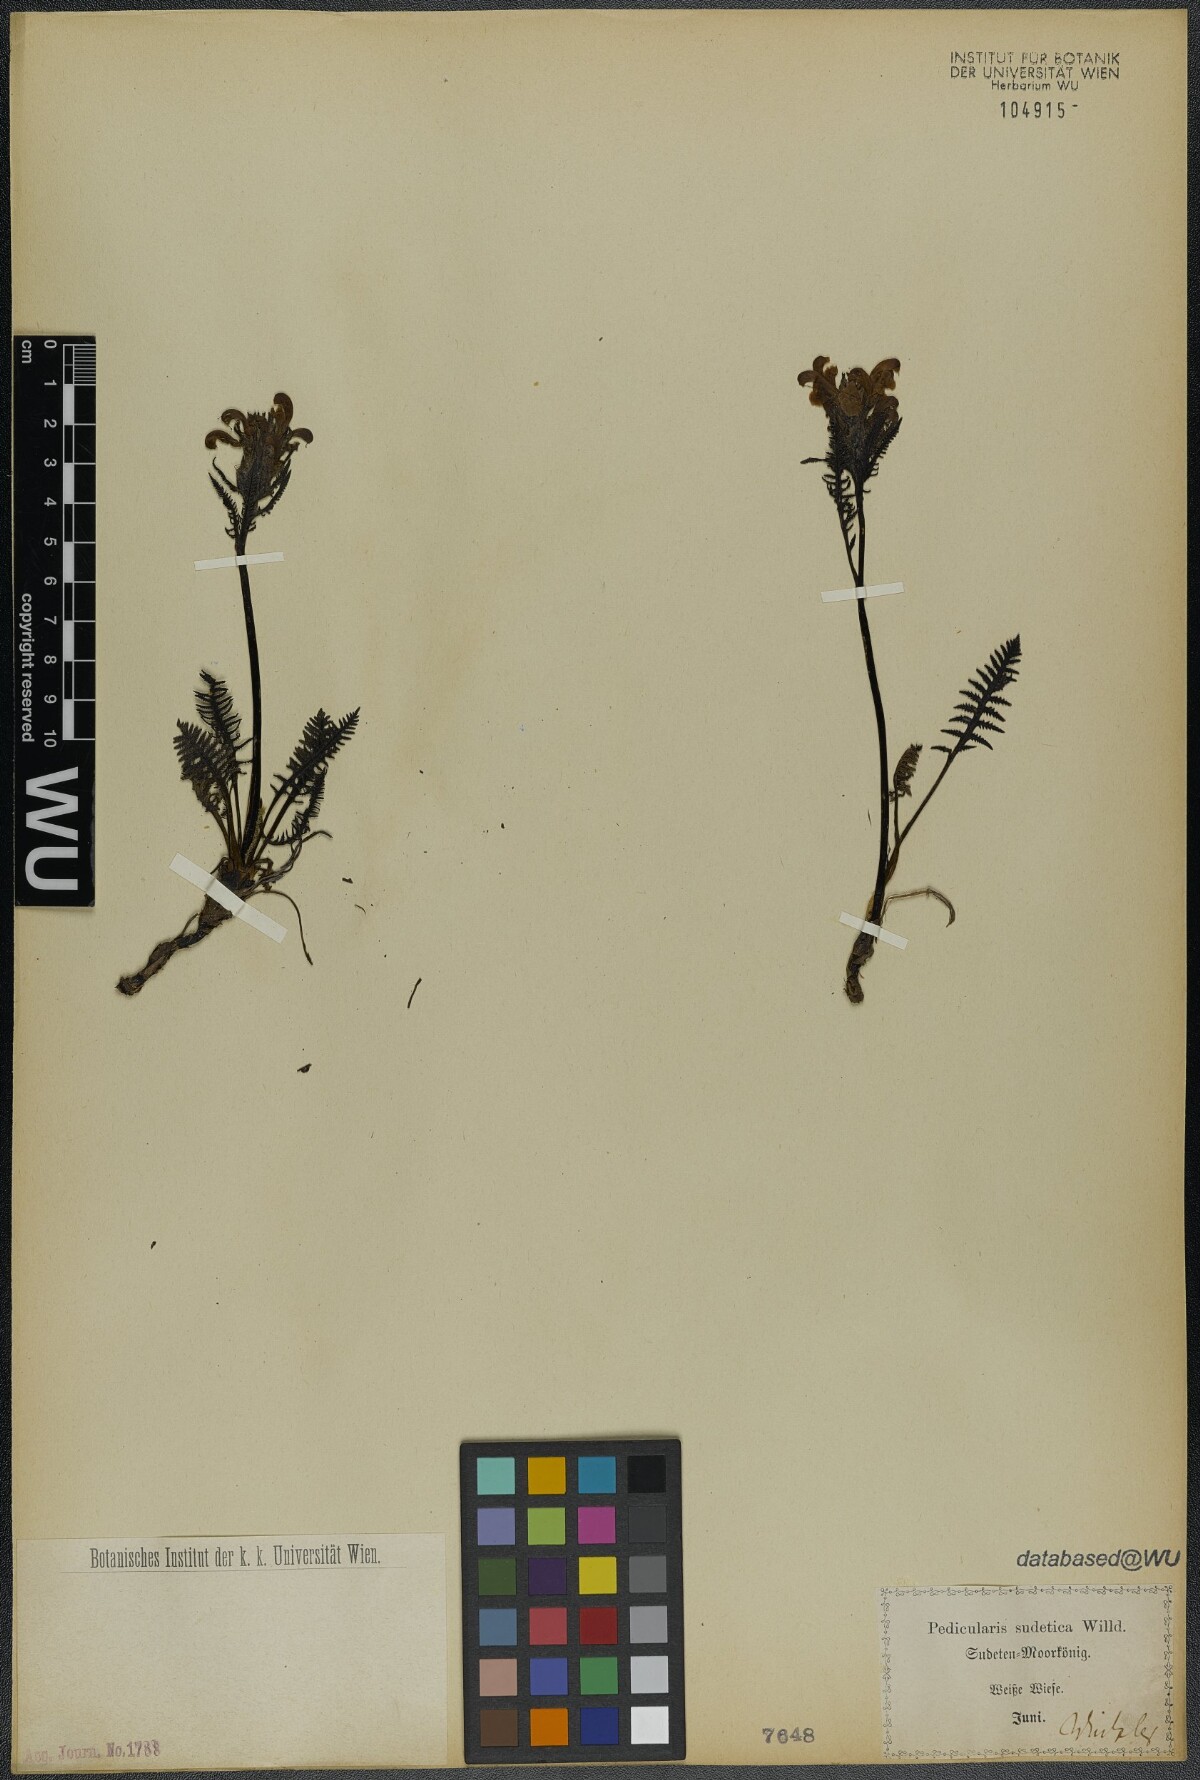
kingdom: Plantae
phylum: Tracheophyta
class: Magnoliopsida
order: Lamiales
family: Orobanchaceae
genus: Pedicularis
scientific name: Pedicularis sudetica
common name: Sudeten lousewort
